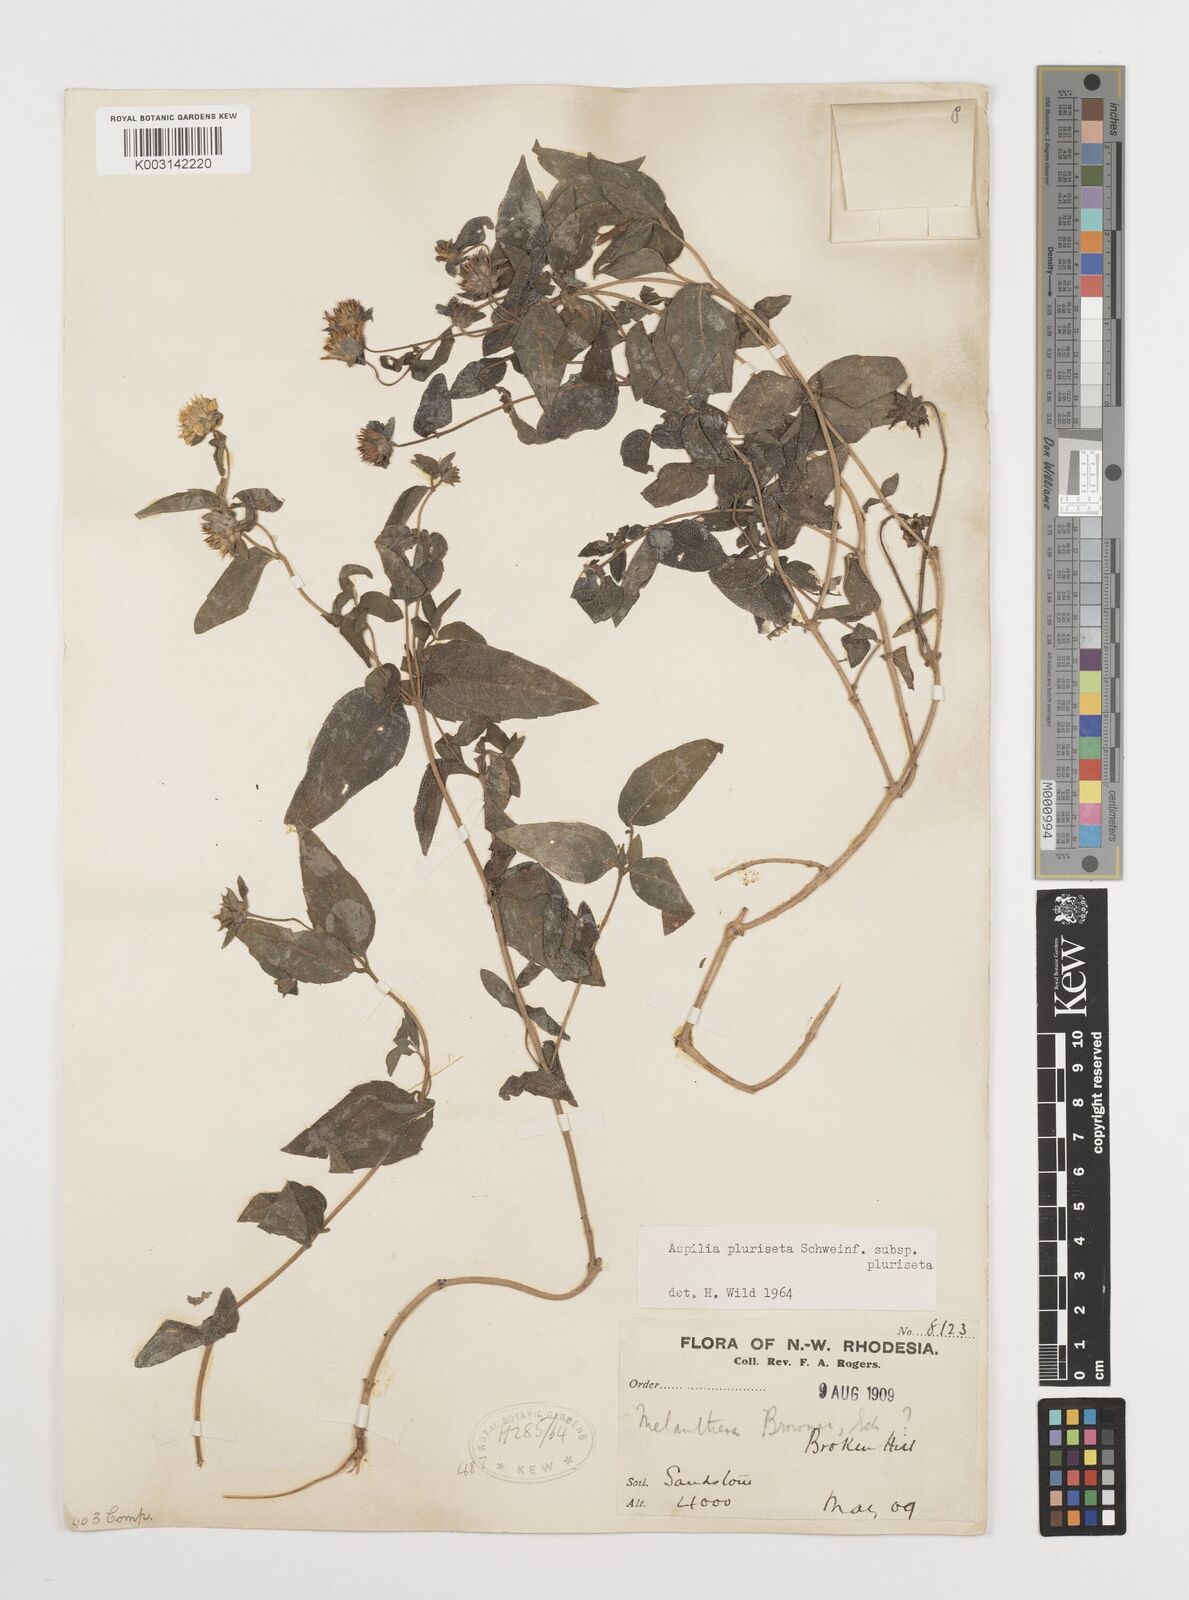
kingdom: Plantae
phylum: Tracheophyta
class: Magnoliopsida
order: Asterales
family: Asteraceae
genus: Aspilia
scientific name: Aspilia pluriseta
